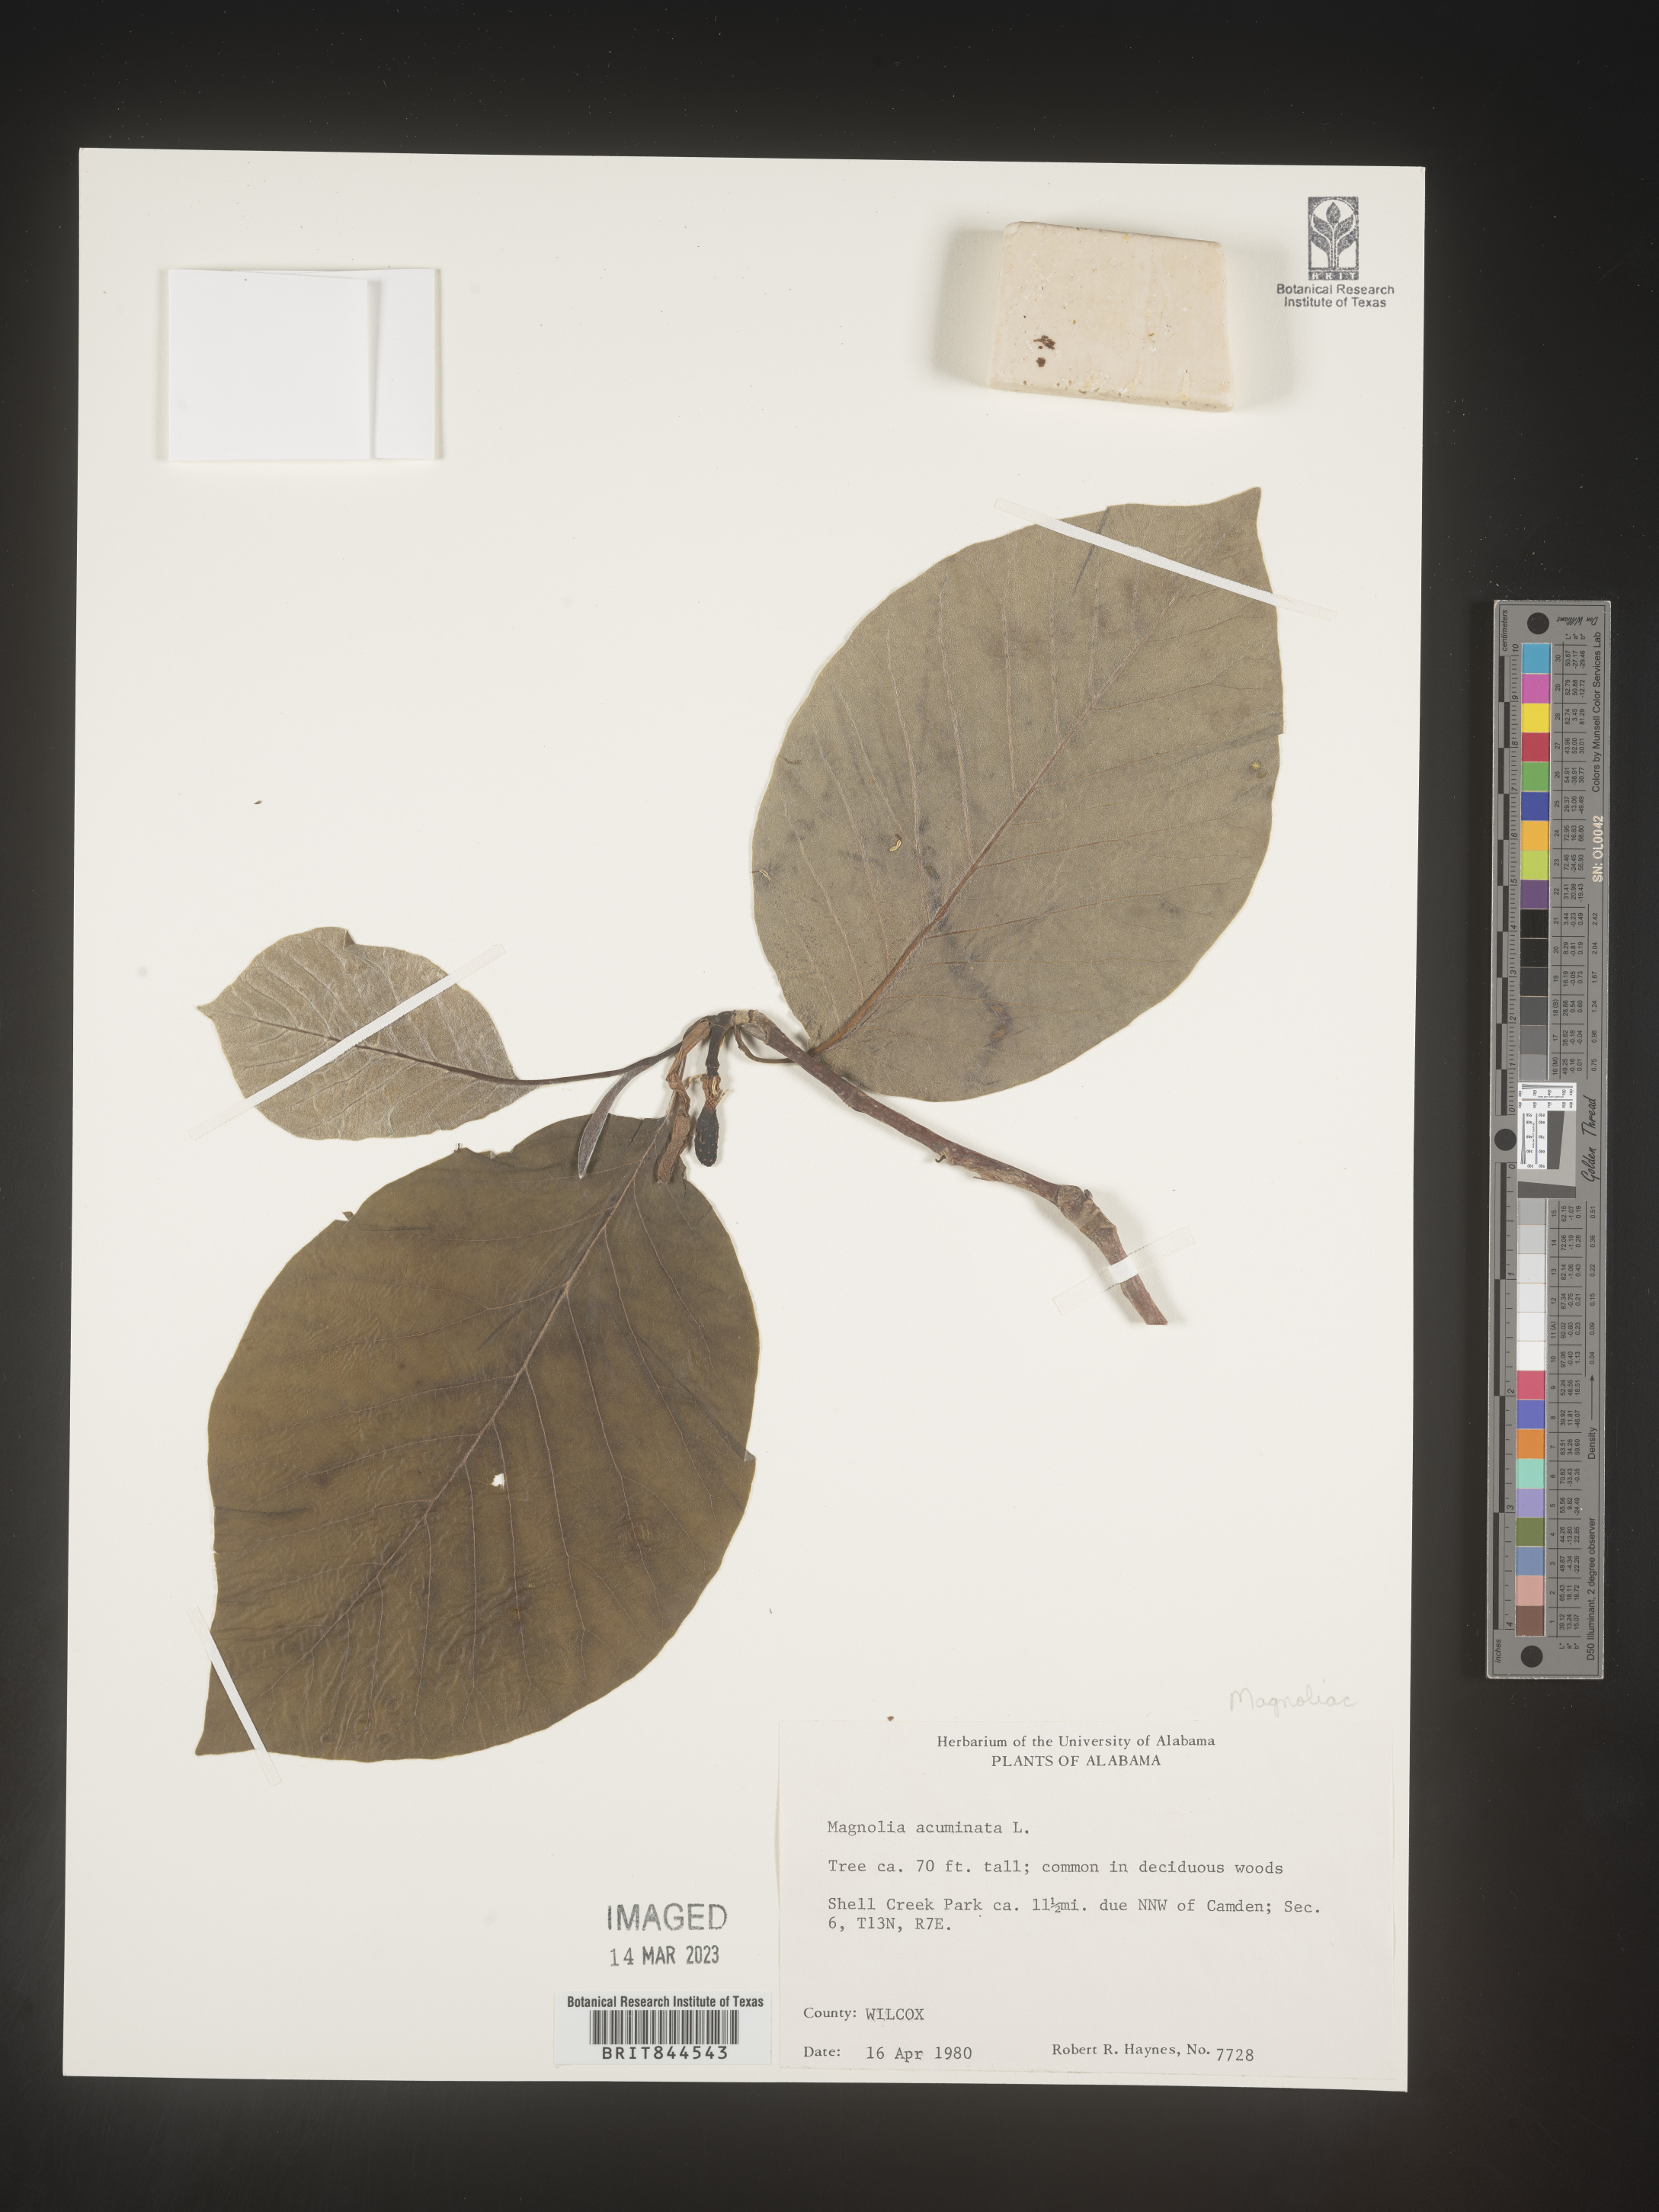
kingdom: Plantae
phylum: Tracheophyta
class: Magnoliopsida
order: Magnoliales
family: Magnoliaceae
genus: Magnolia
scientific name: Magnolia acuminata
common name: Cucumber magnolia
